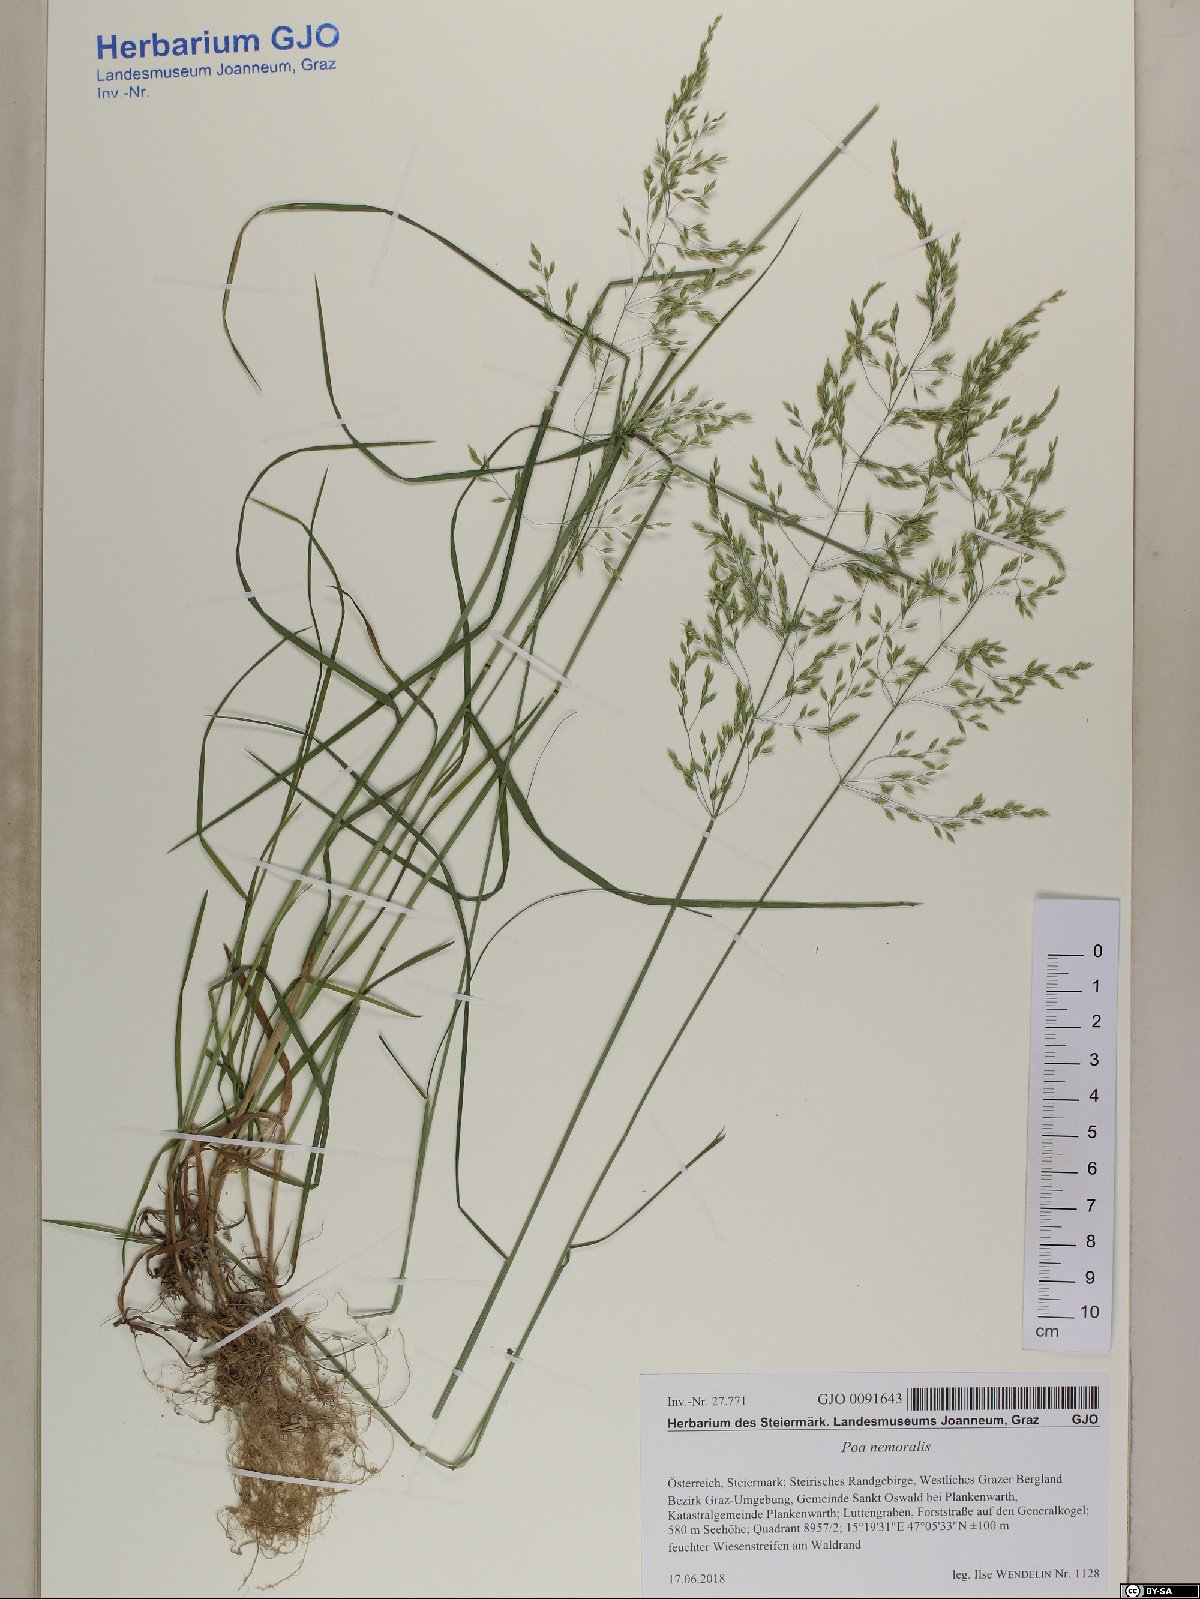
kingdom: Plantae
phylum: Tracheophyta
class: Liliopsida
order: Poales
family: Poaceae
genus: Poa
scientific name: Poa nemoralis
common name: Wood bluegrass
